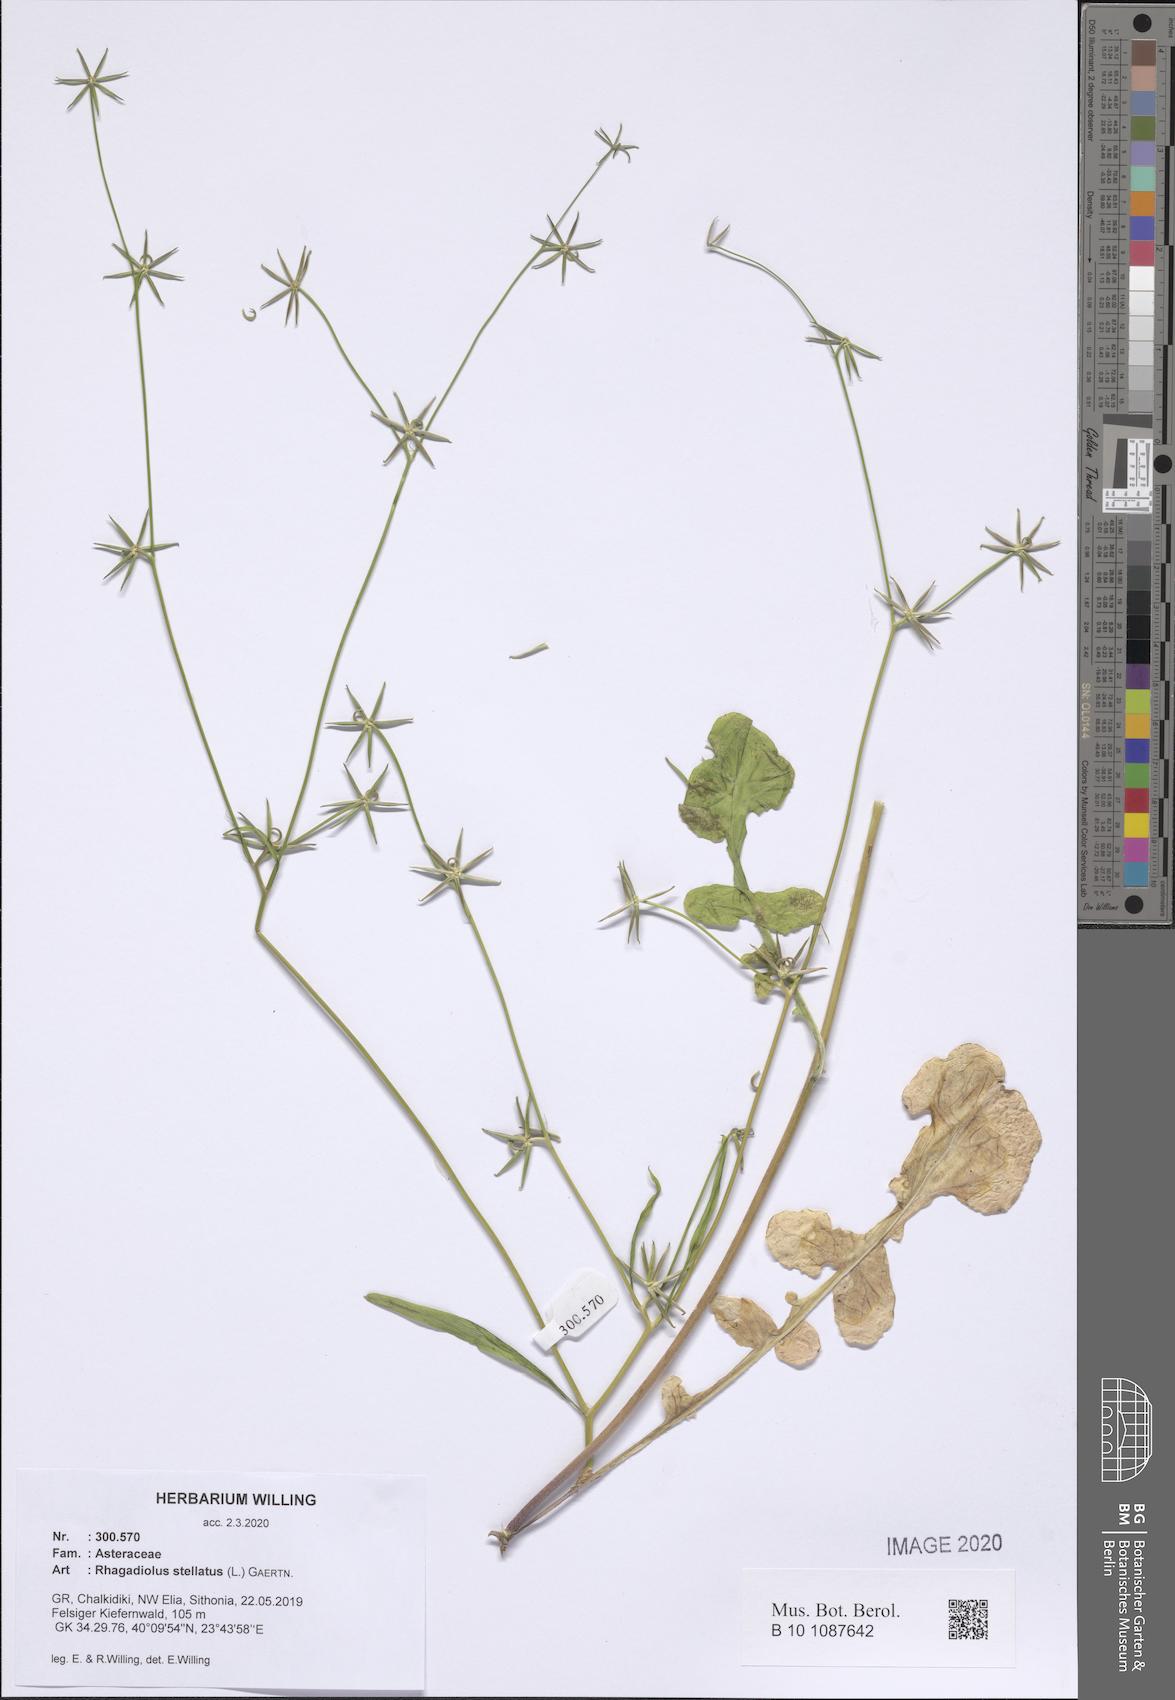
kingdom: Plantae
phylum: Tracheophyta
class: Magnoliopsida
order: Asterales
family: Asteraceae
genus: Rhagadiolus
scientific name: Rhagadiolus stellatus
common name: Star hawkbit
